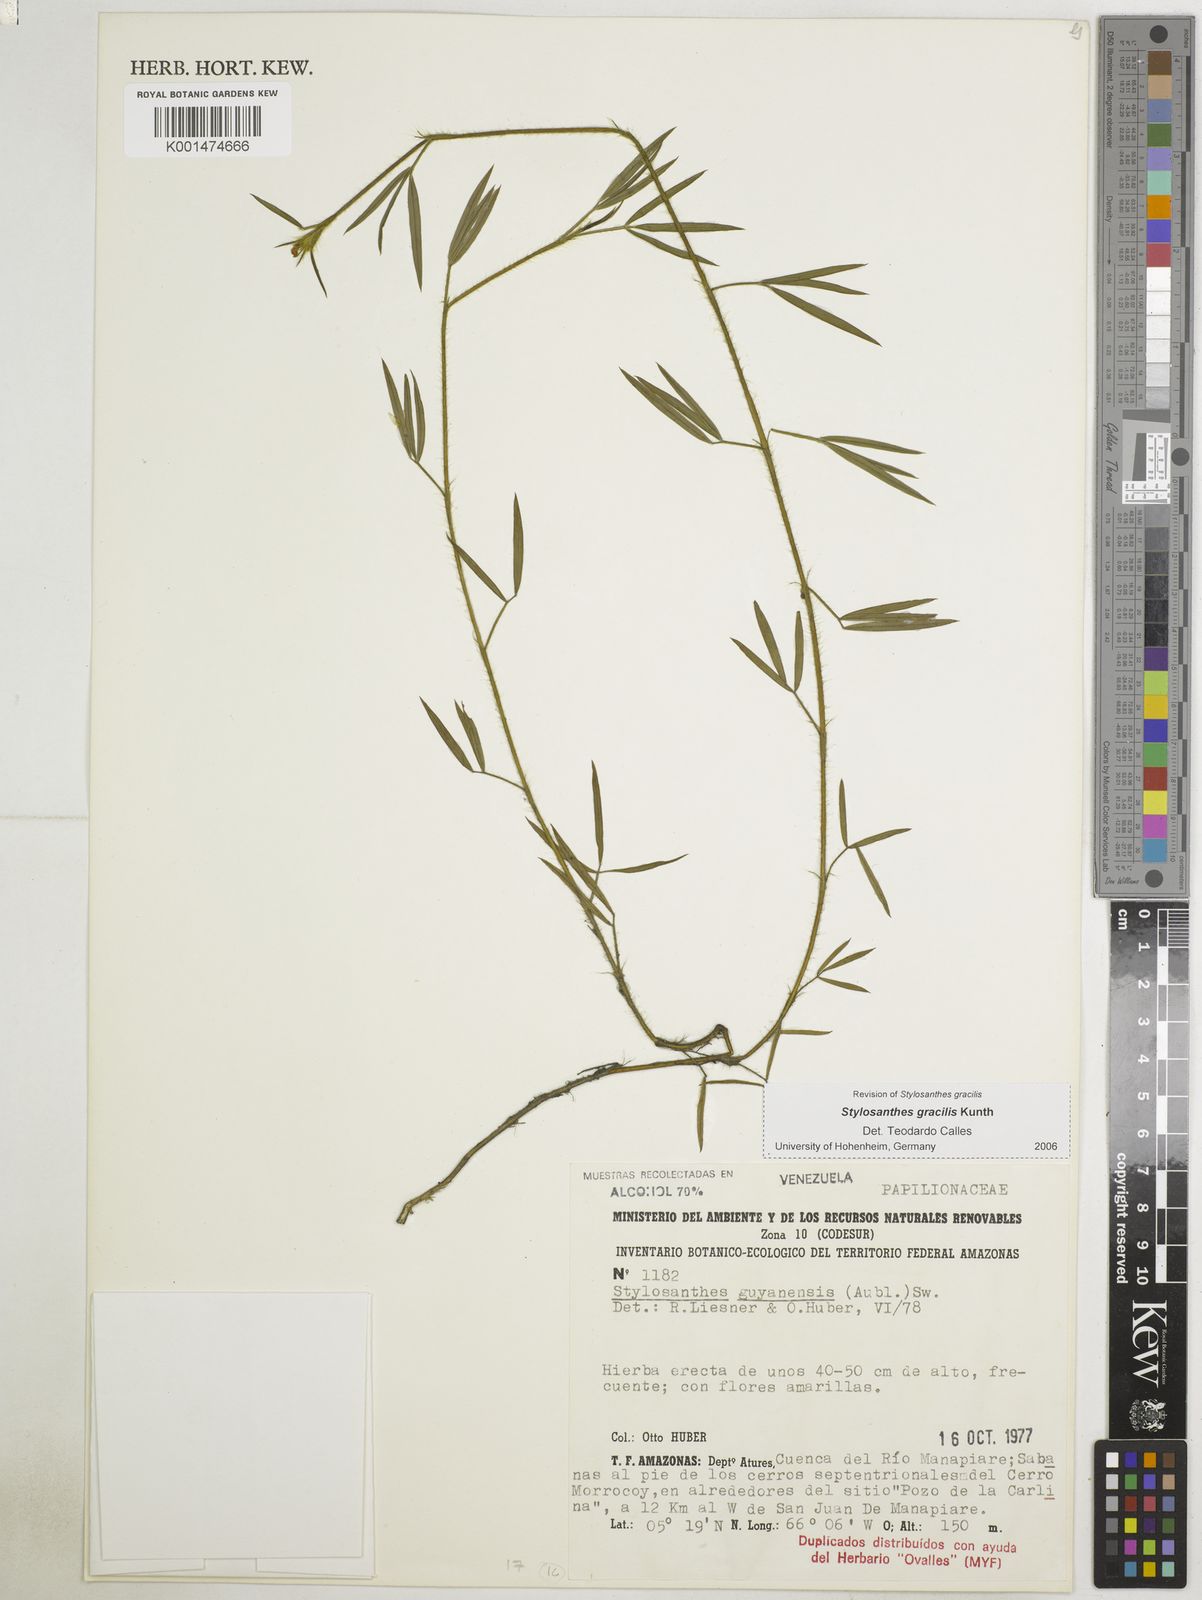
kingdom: Plantae
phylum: Tracheophyta
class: Magnoliopsida
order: Fabales
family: Fabaceae
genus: Stylosanthes
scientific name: Stylosanthes guianensis
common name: Pencil flower
